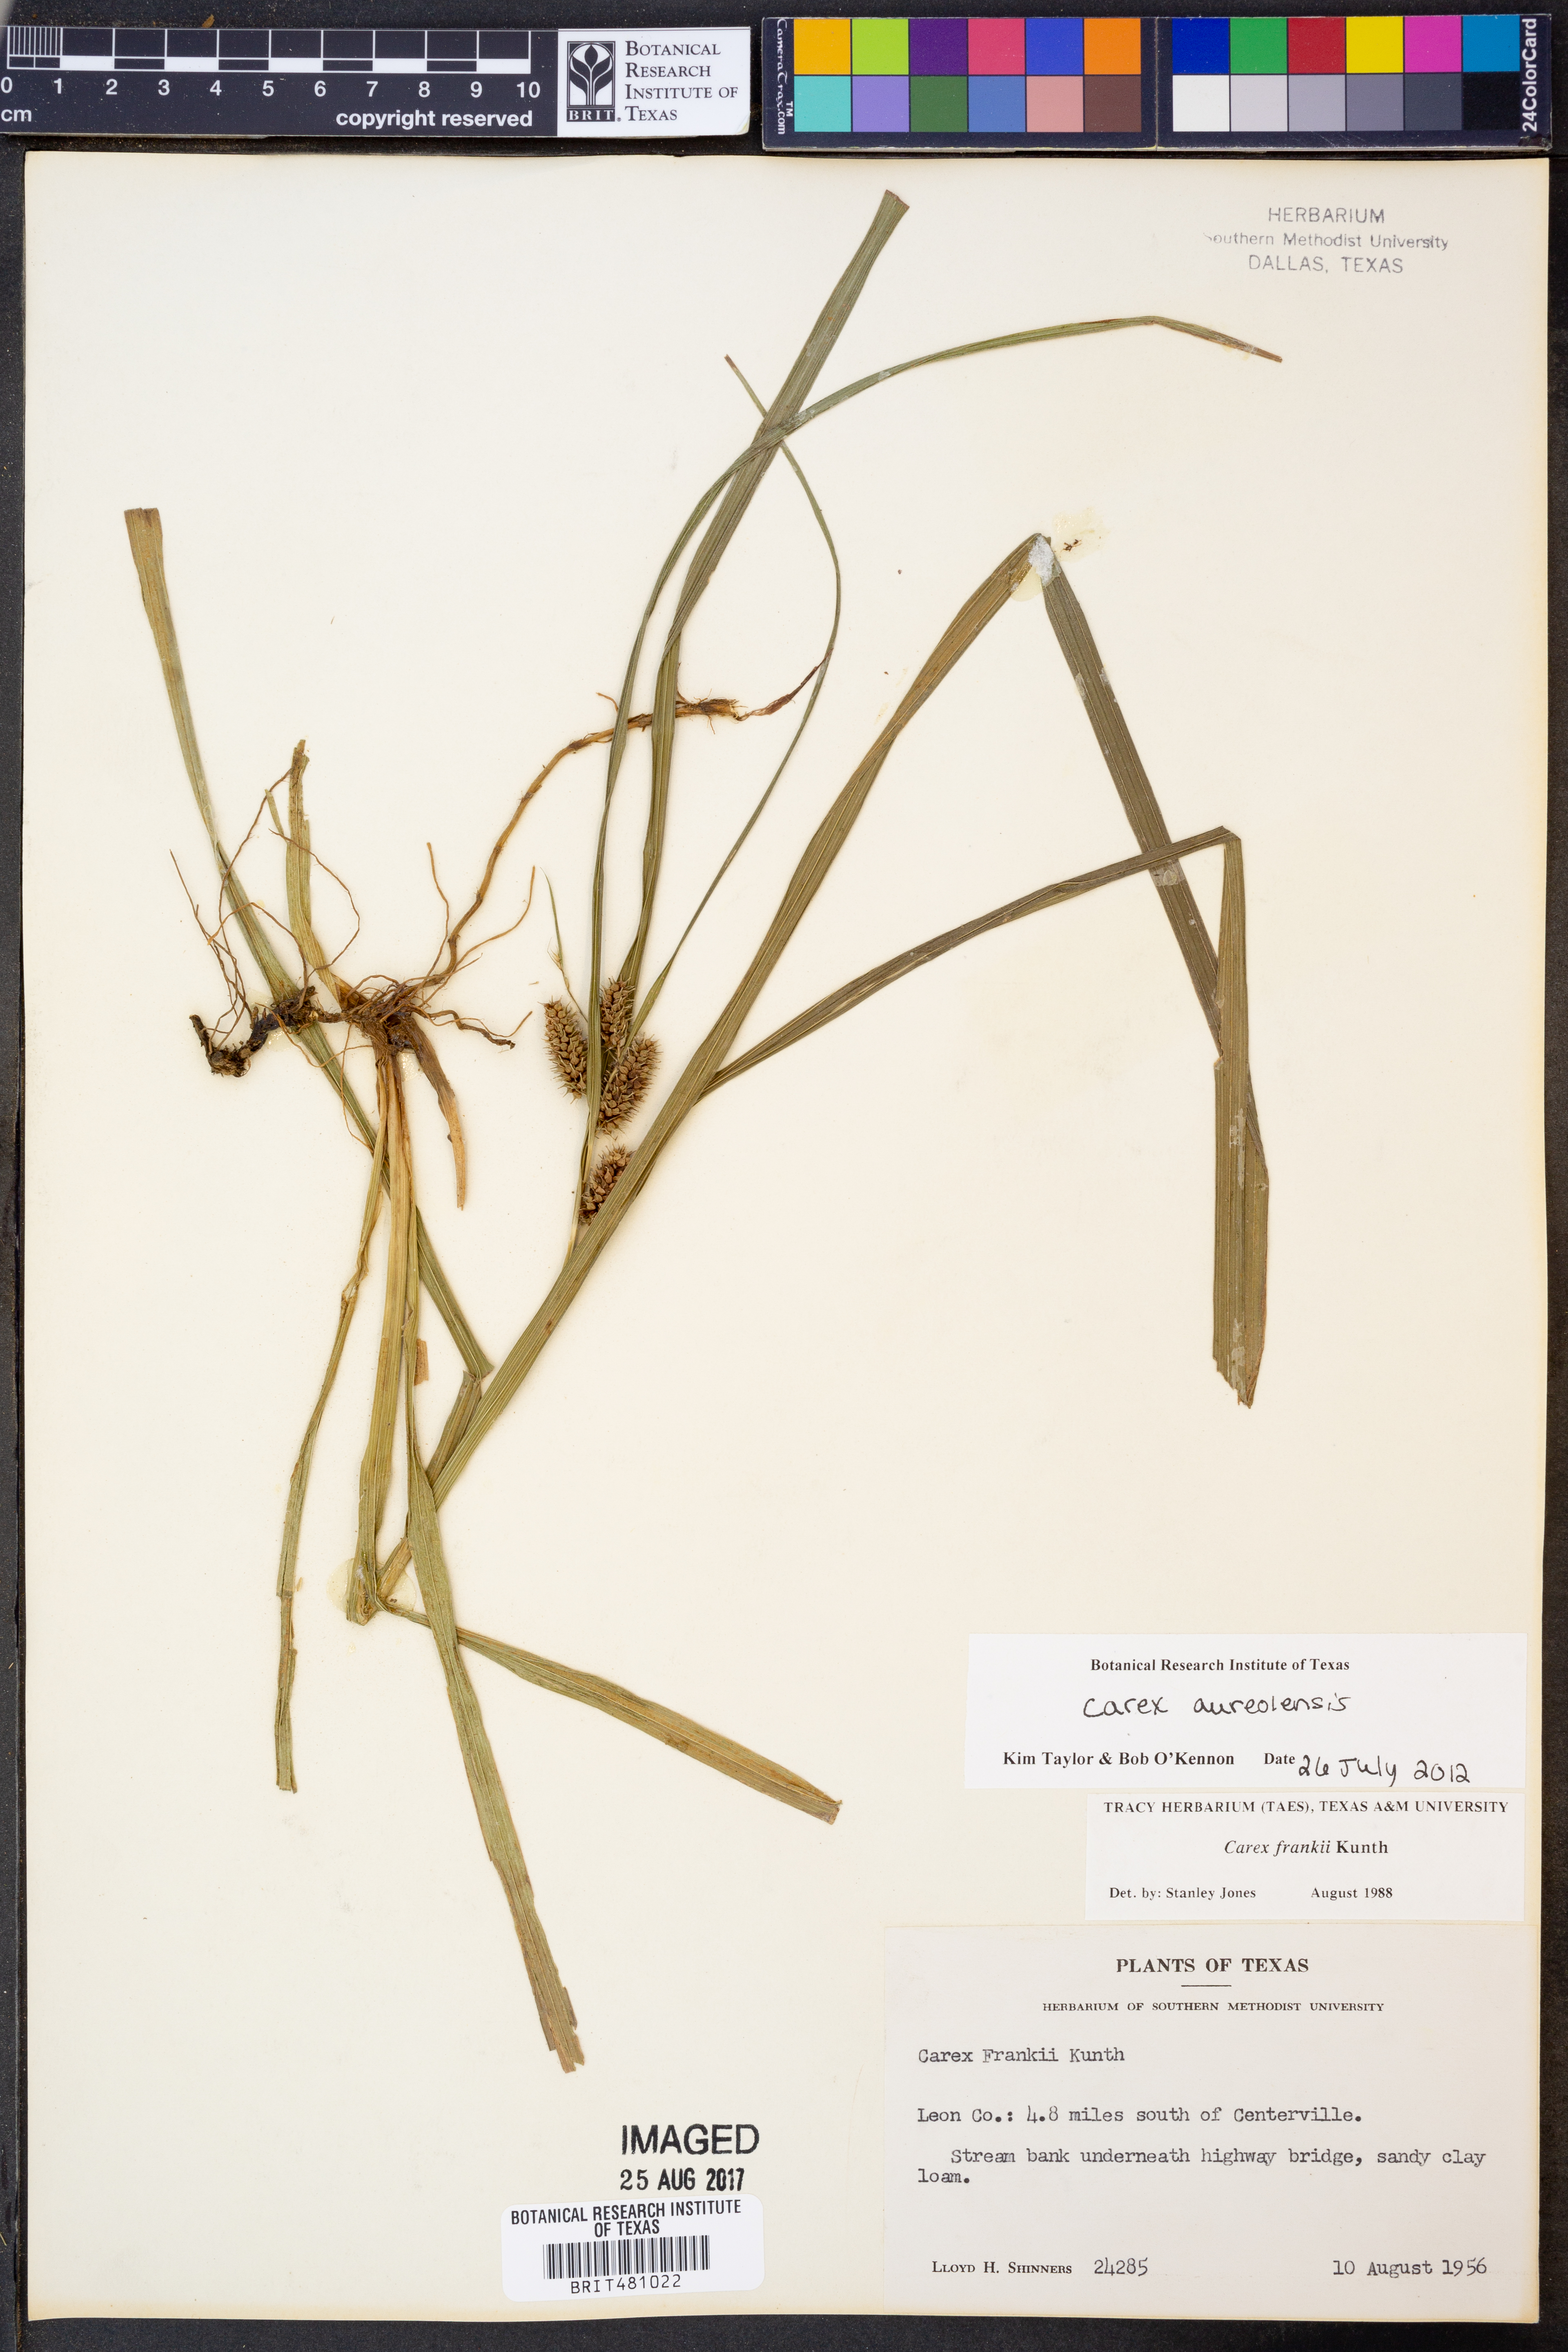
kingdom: Plantae
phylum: Tracheophyta
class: Liliopsida
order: Poales
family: Cyperaceae
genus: Carex
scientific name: Carex aureolensis
